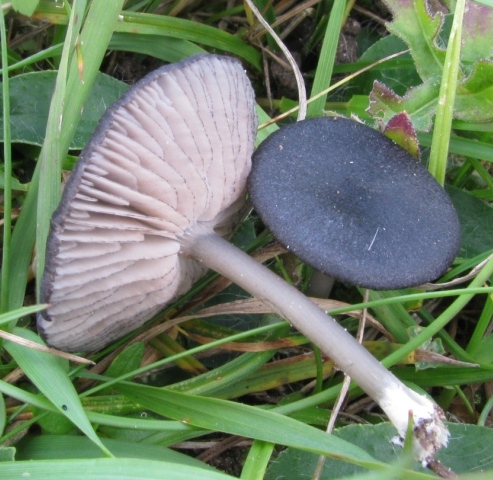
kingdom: Fungi
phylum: Basidiomycota
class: Agaricomycetes
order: Agaricales
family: Entolomataceae
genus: Entoloma
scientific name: Entoloma
